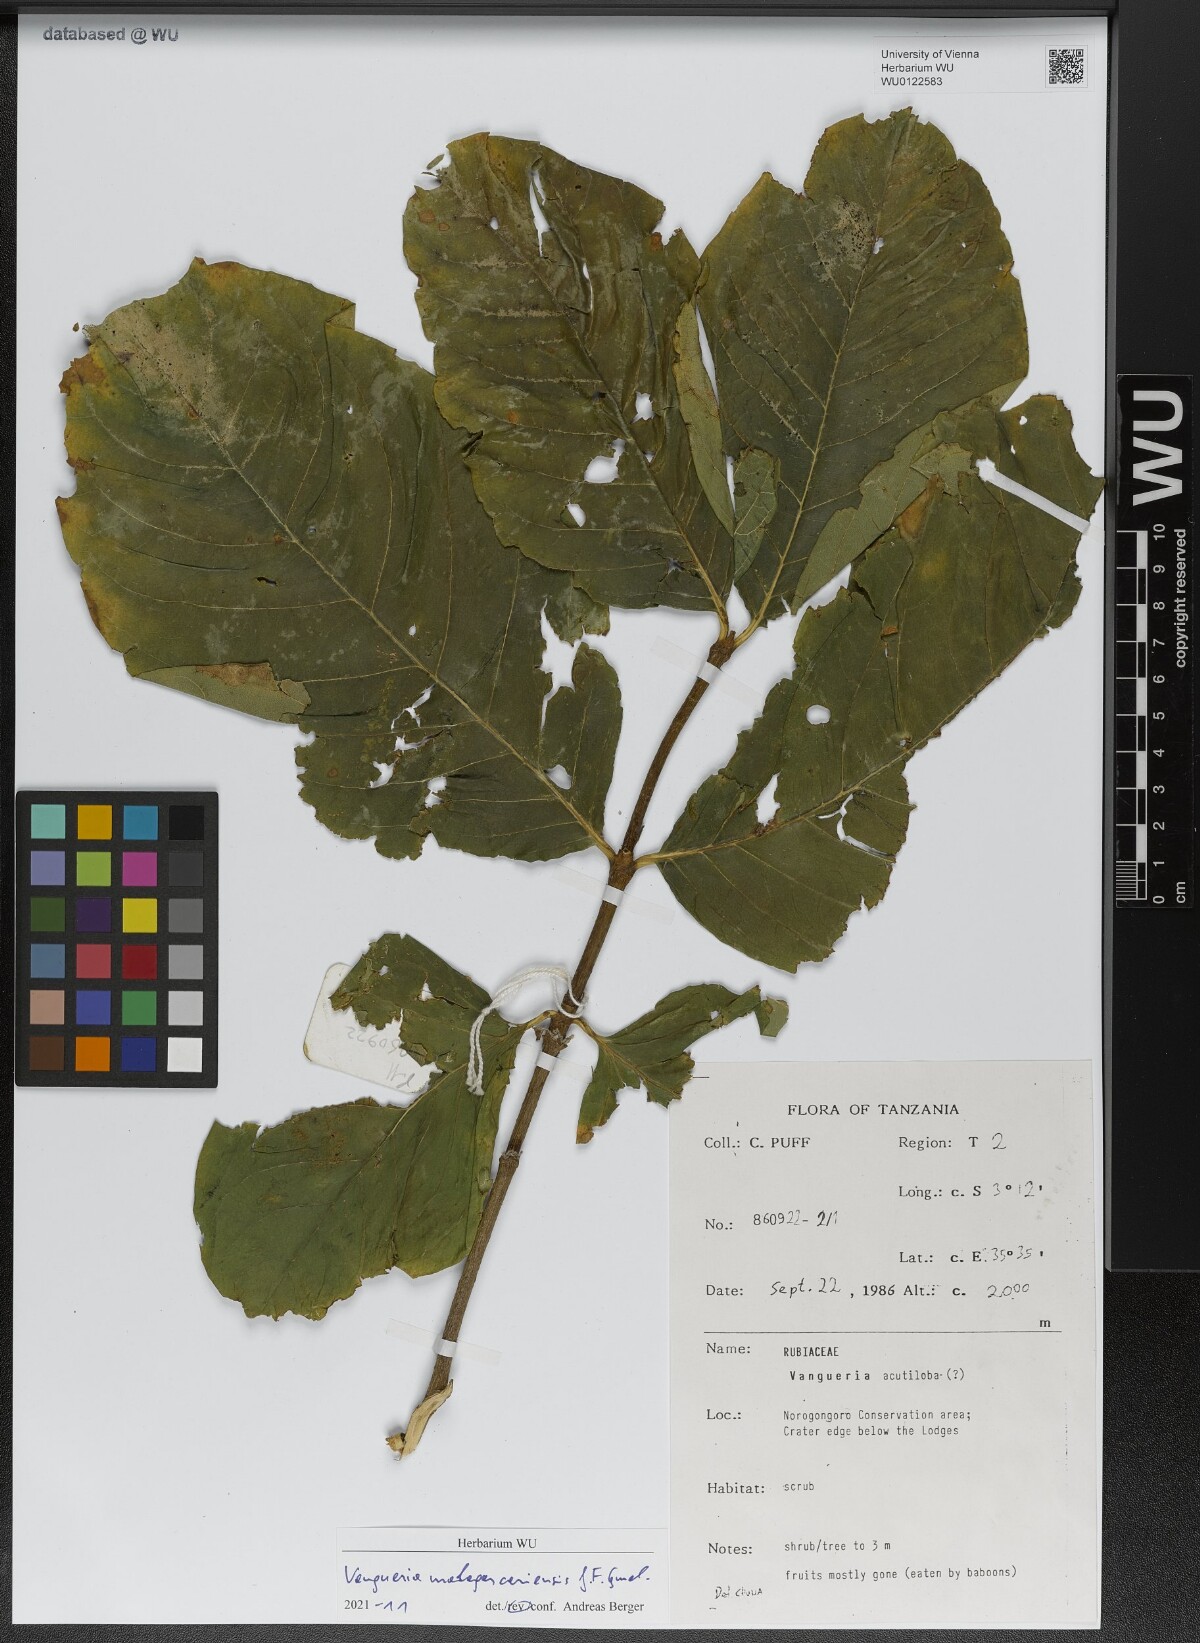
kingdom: Plantae
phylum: Tracheophyta
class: Magnoliopsida
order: Gentianales
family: Rubiaceae
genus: Vangueria
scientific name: Vangueria madagascariensis
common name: Smooth wild-medlar
